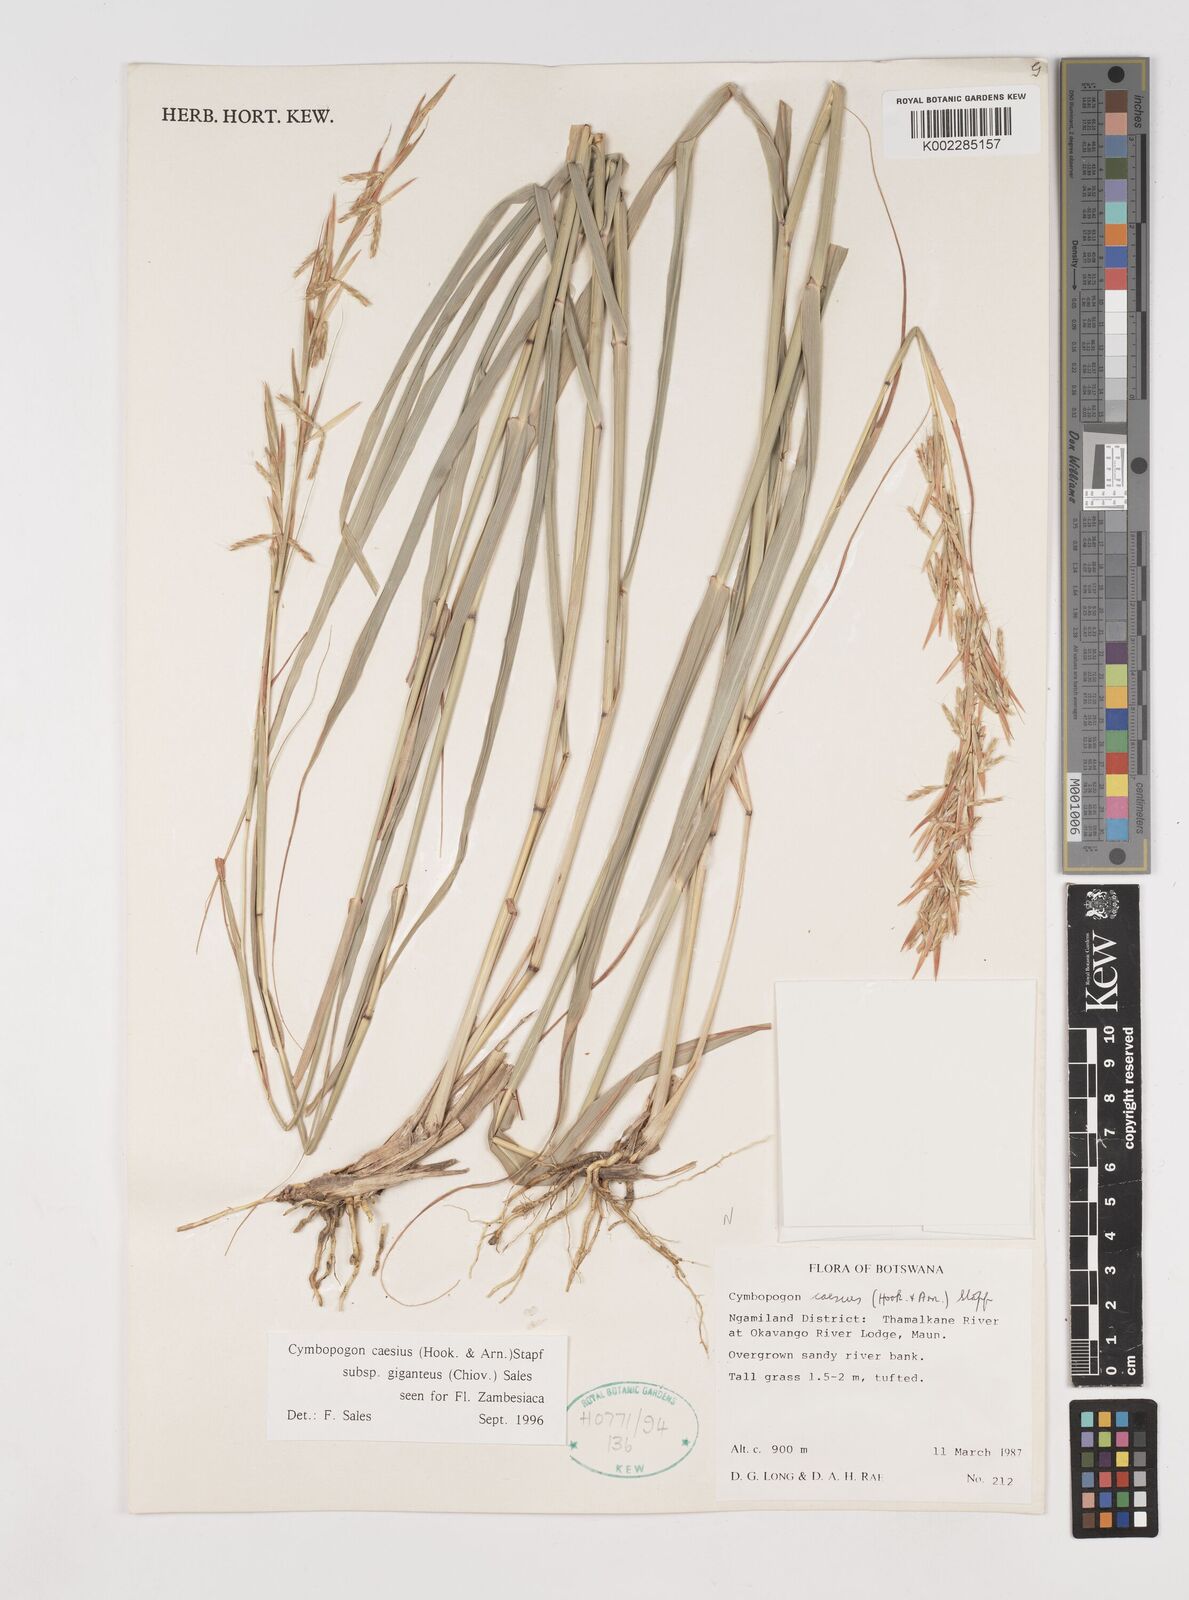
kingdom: Plantae
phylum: Tracheophyta
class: Liliopsida
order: Poales
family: Poaceae
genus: Cymbopogon
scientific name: Cymbopogon giganteus
